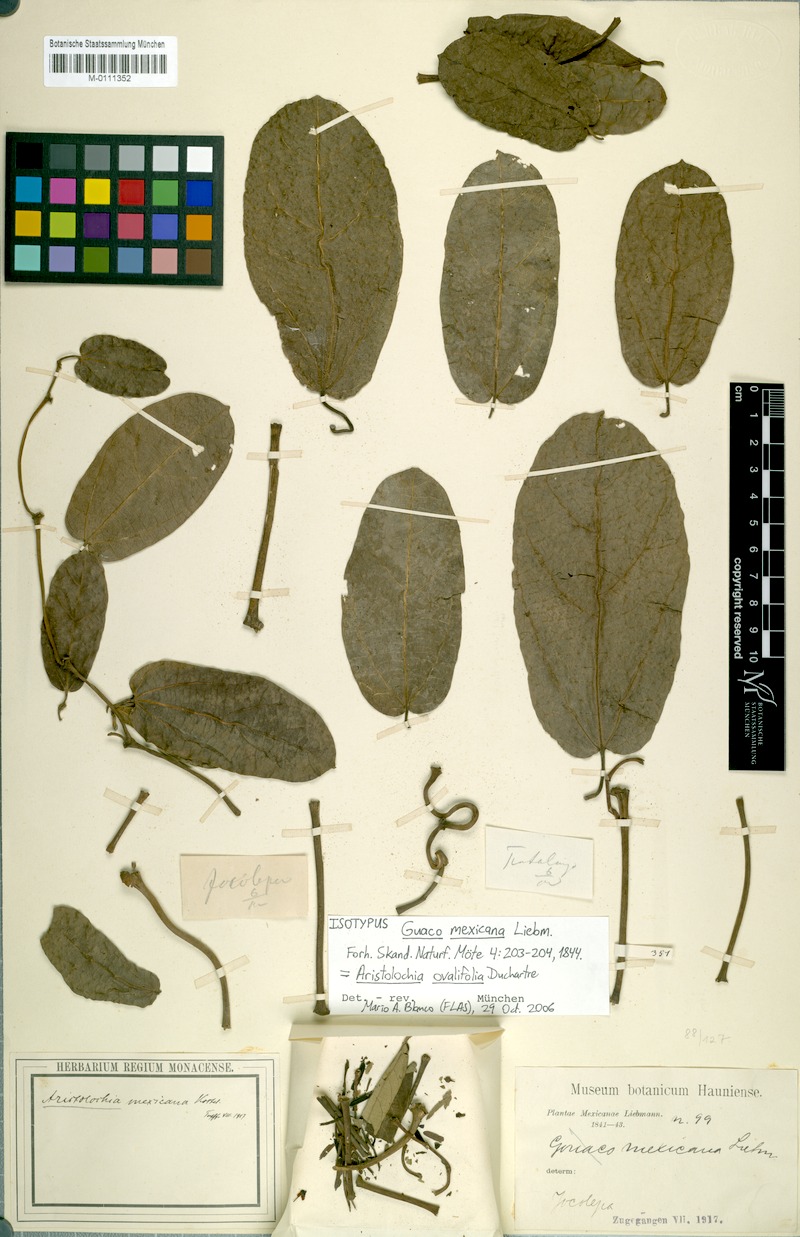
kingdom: Plantae
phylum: Tracheophyta
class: Magnoliopsida
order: Piperales
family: Aristolochiaceae
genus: Aristolochia
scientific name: Aristolochia ovalifolia
